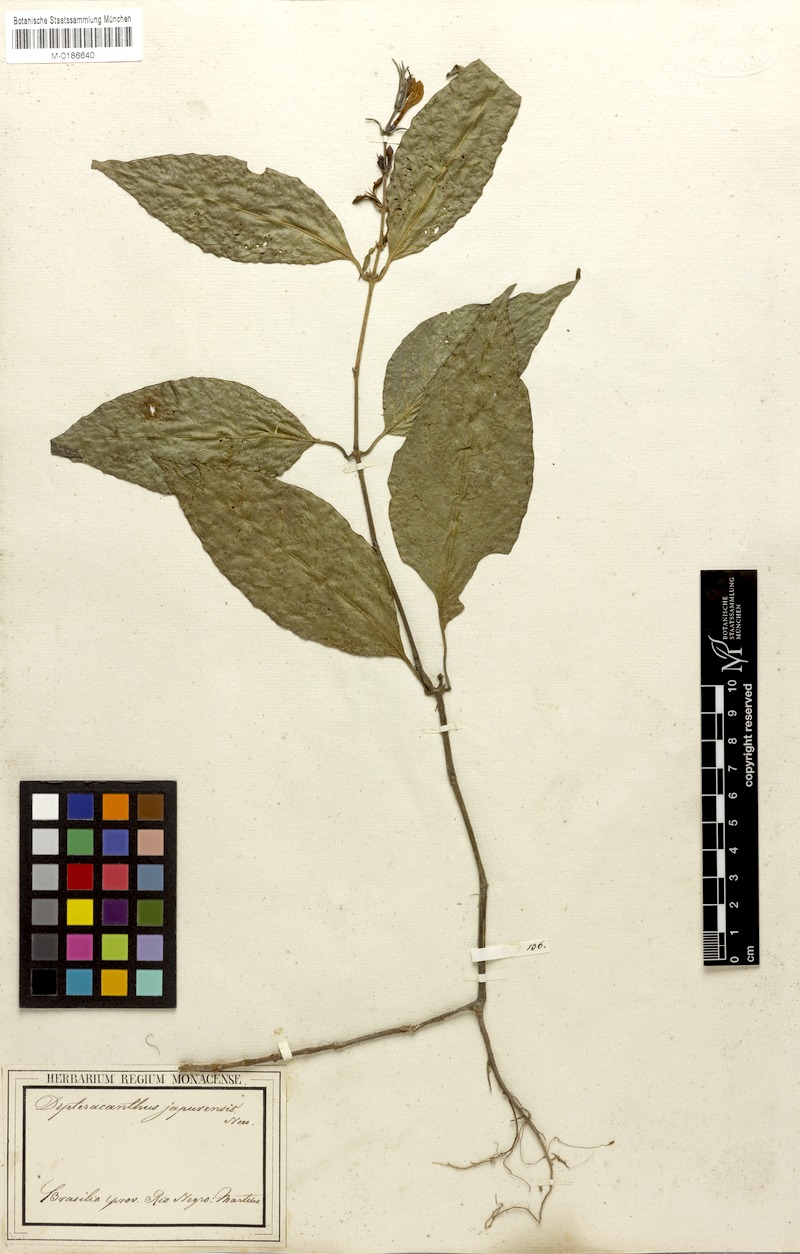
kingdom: Plantae
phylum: Tracheophyta
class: Magnoliopsida
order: Lamiales
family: Acanthaceae
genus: Ruellia
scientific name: Ruellia terminalis
